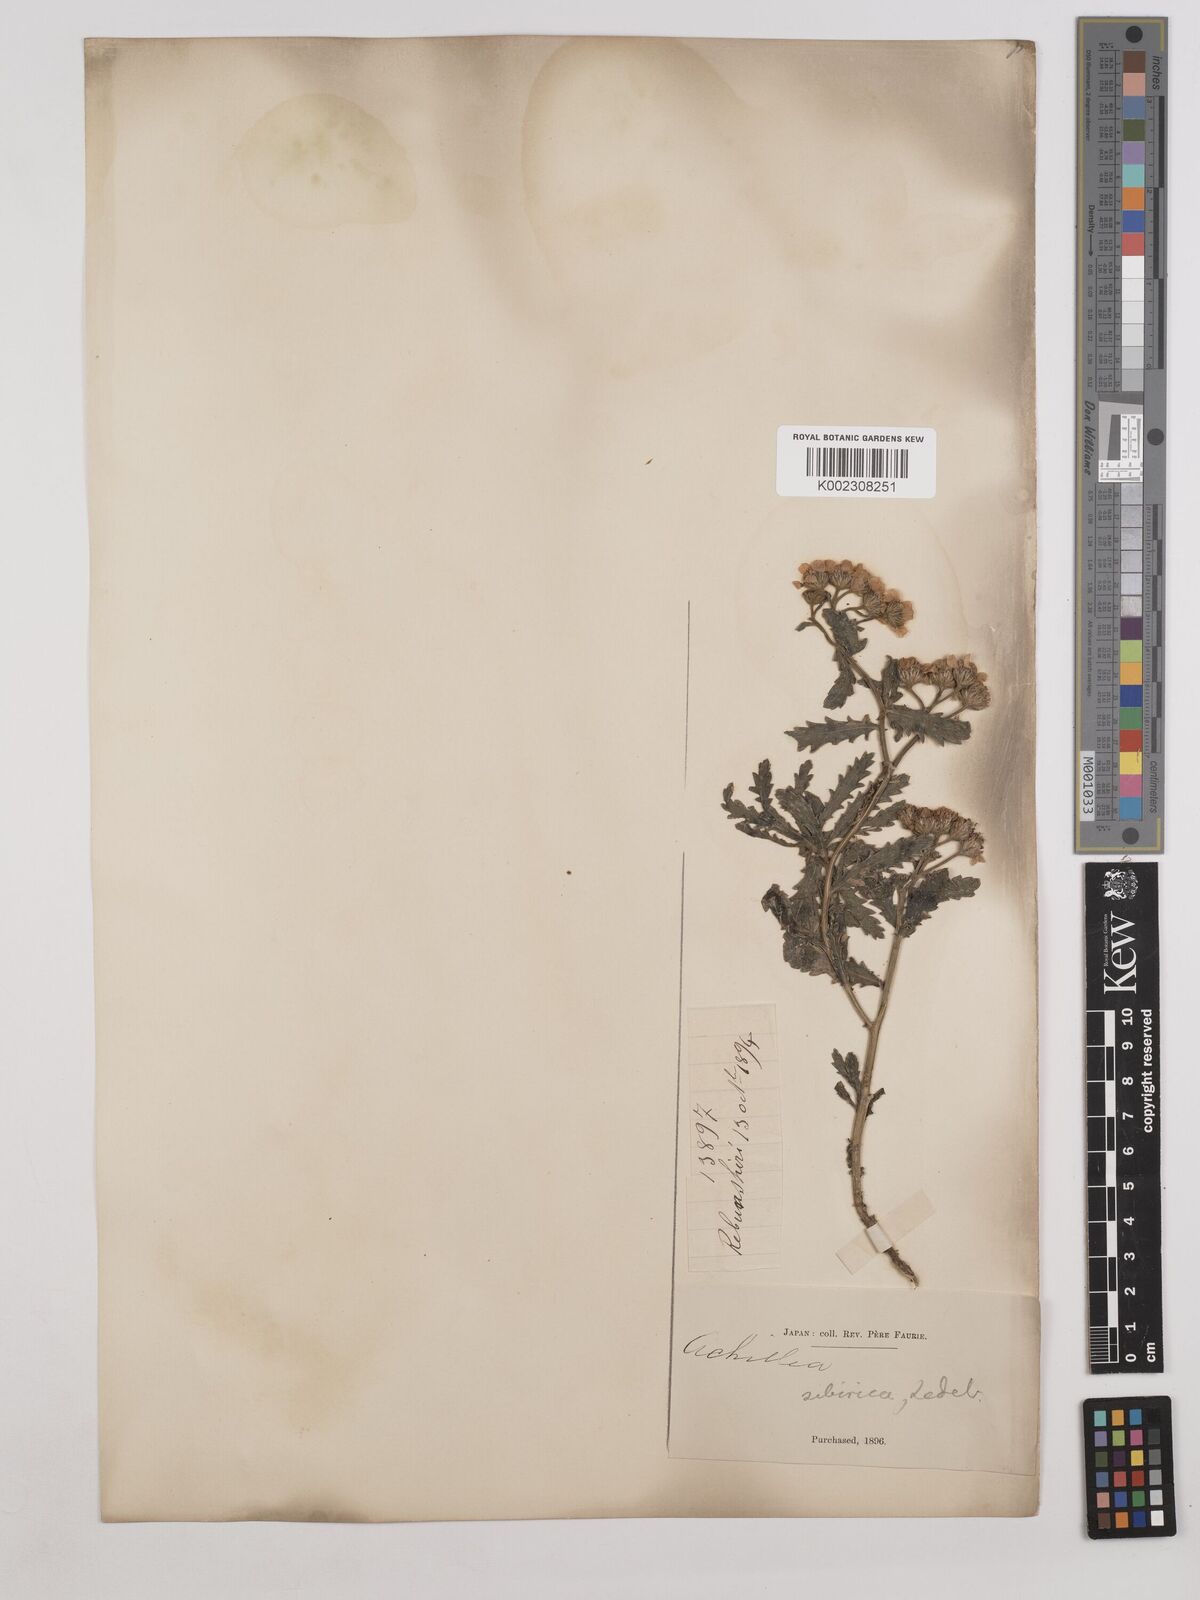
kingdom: Plantae
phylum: Tracheophyta
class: Magnoliopsida
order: Asterales
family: Asteraceae
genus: Achillea
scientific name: Achillea alpina
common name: Siberian yarrow
